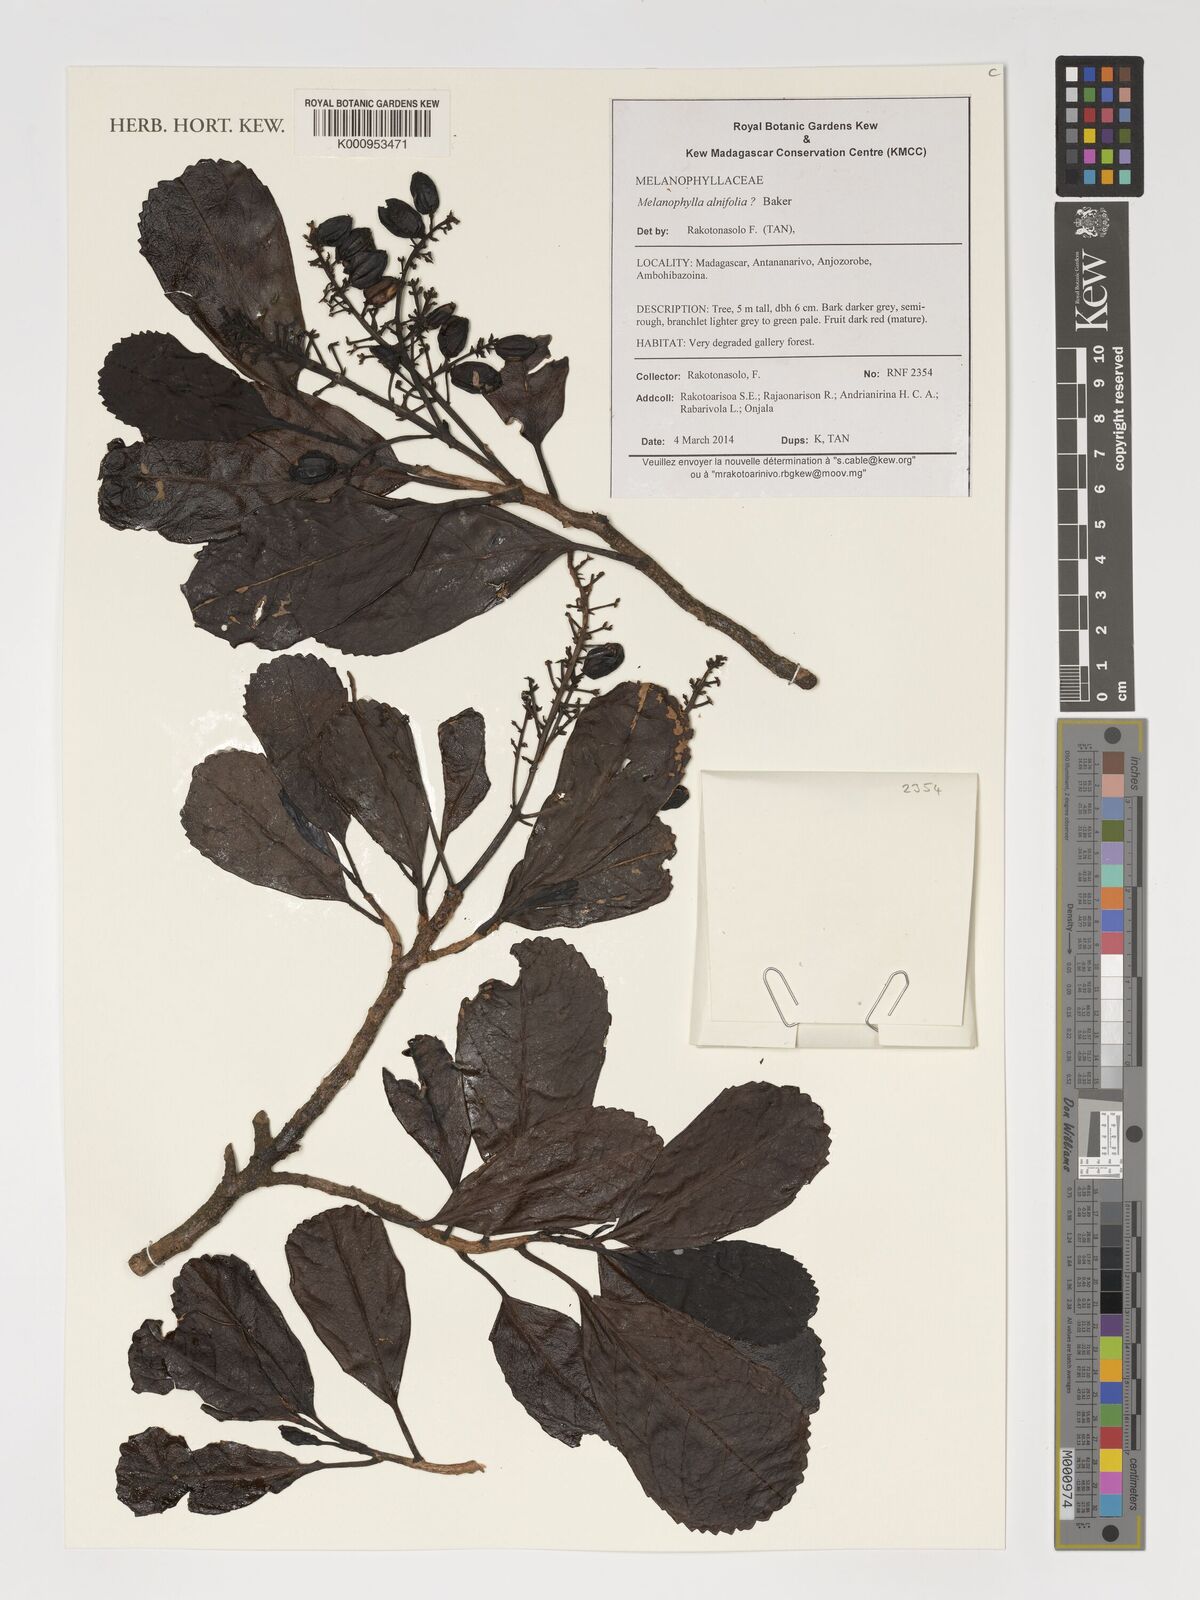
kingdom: Plantae
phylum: Tracheophyta
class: Magnoliopsida
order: Apiales
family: Torricelliaceae
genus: Melanophylla
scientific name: Melanophylla alnifolia
